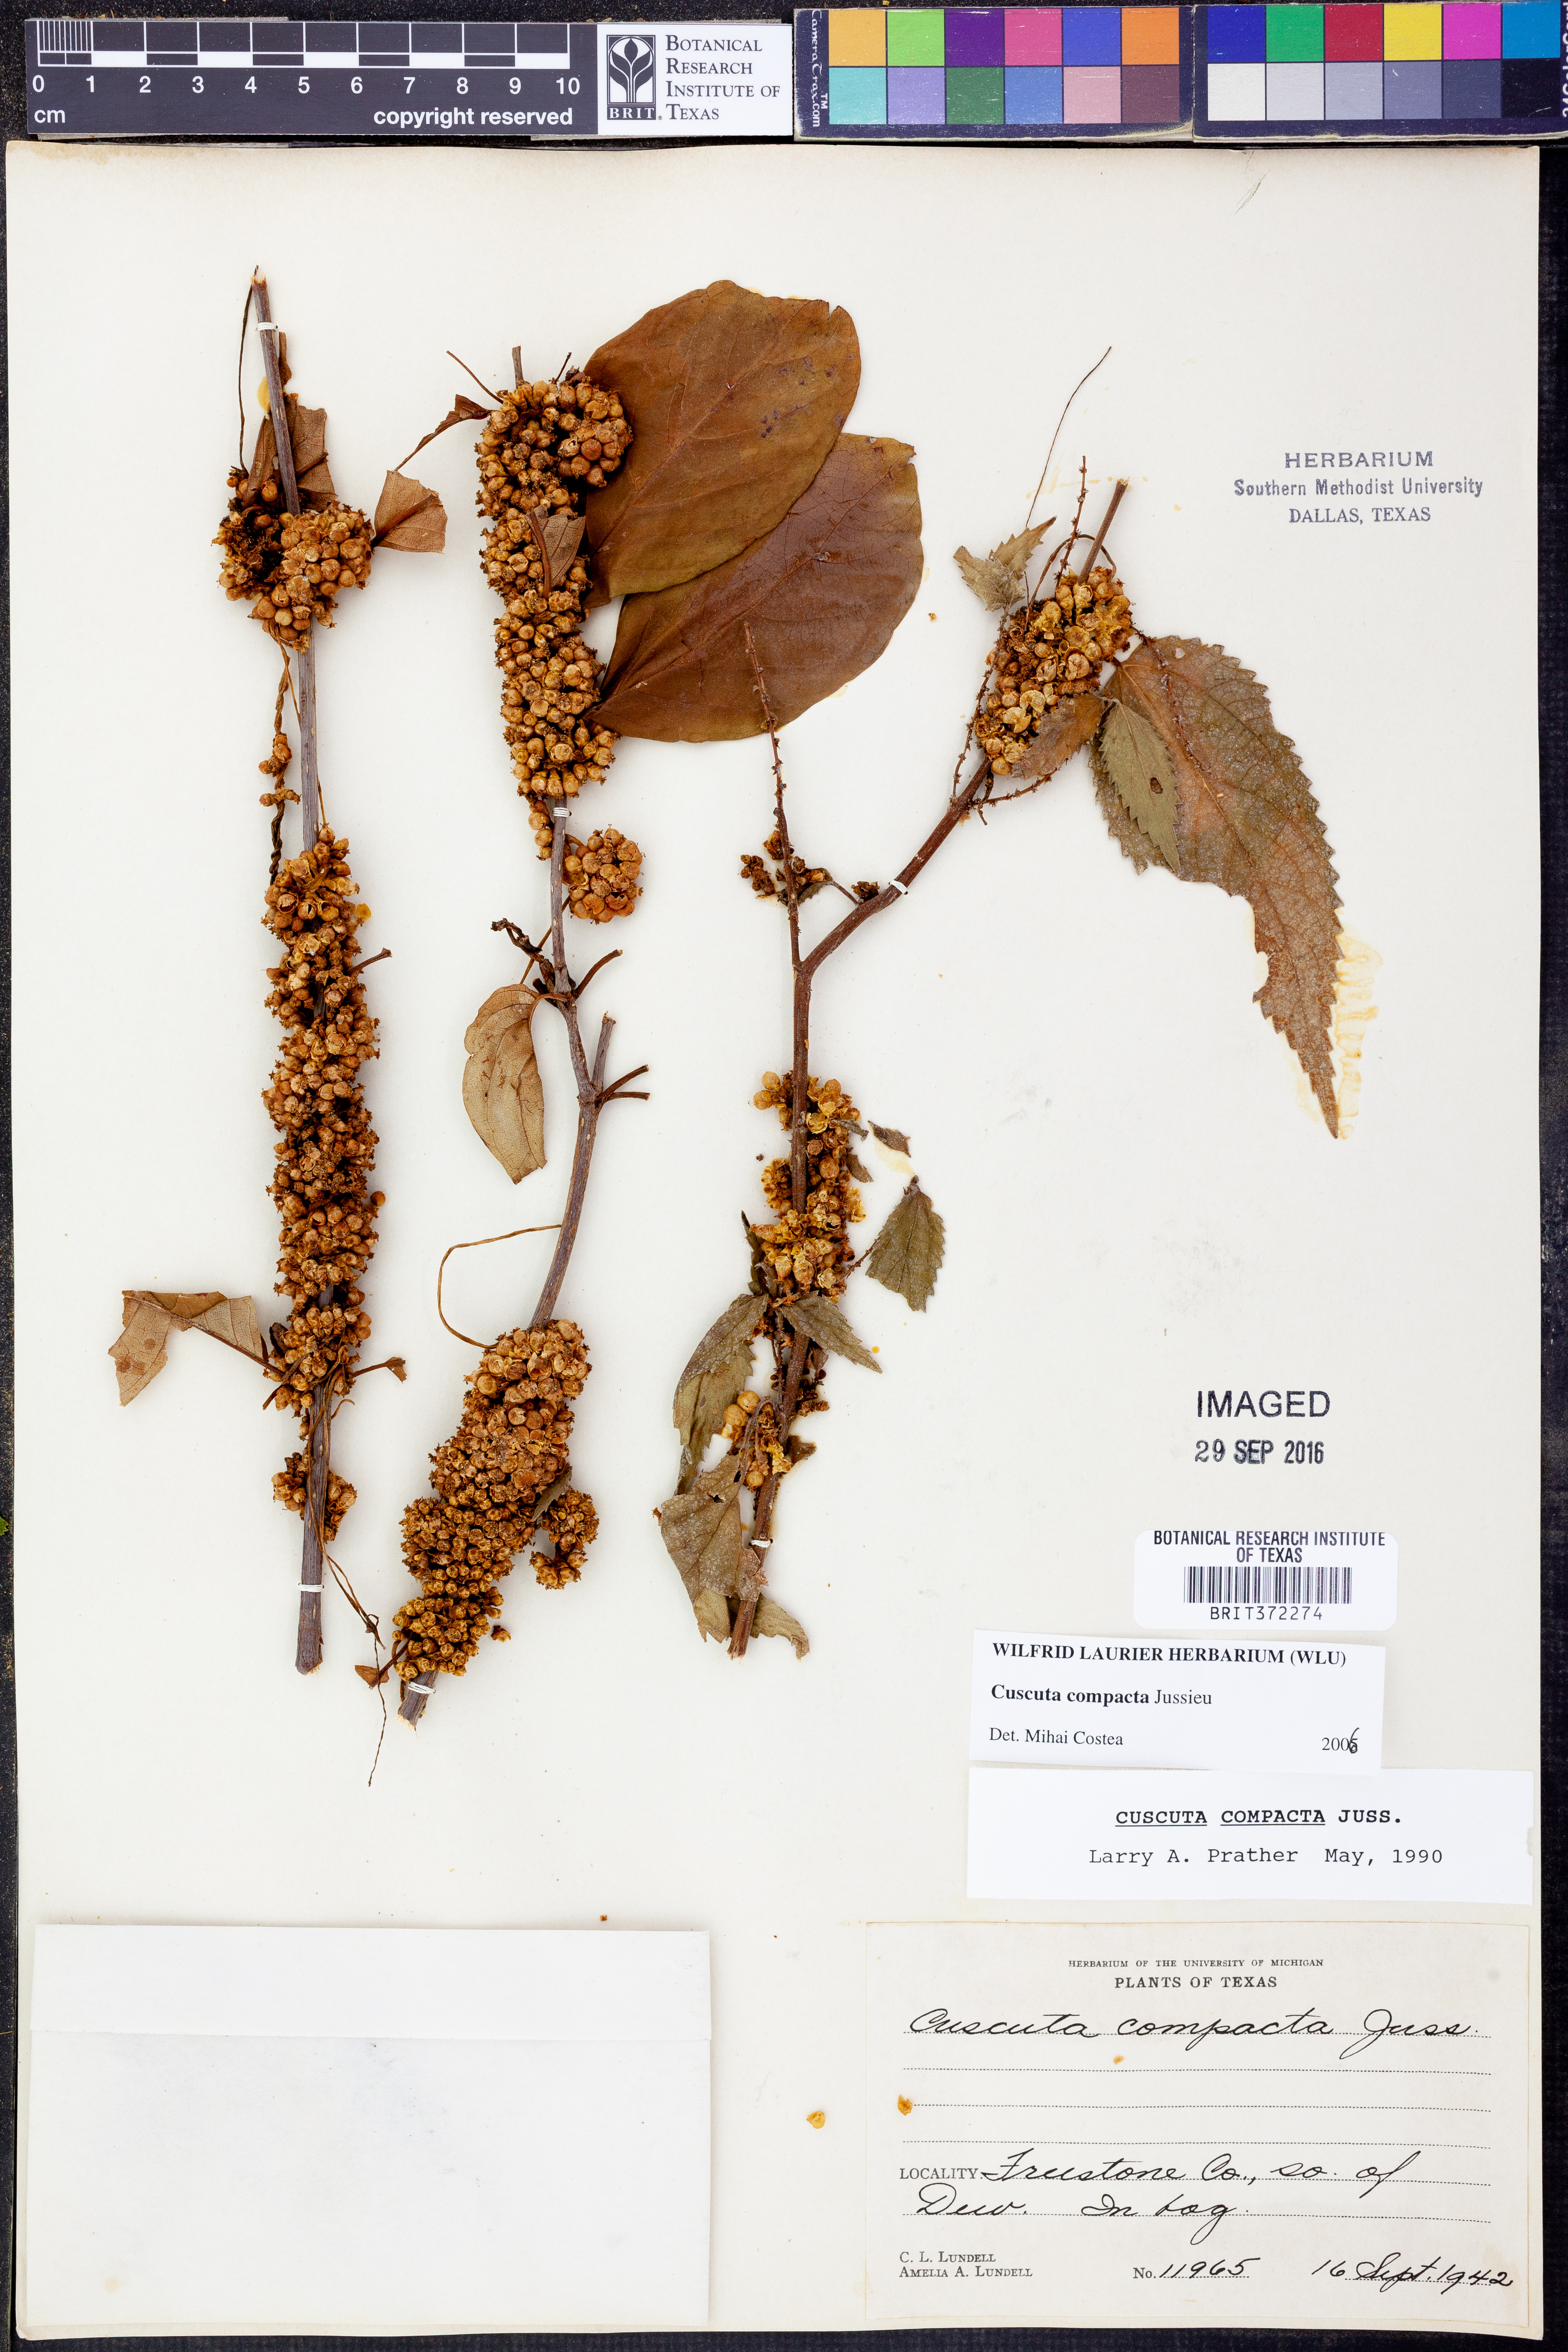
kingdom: Plantae
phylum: Tracheophyta
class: Magnoliopsida
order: Solanales
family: Convolvulaceae
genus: Cuscuta
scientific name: Cuscuta compacta
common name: Compact dodder
